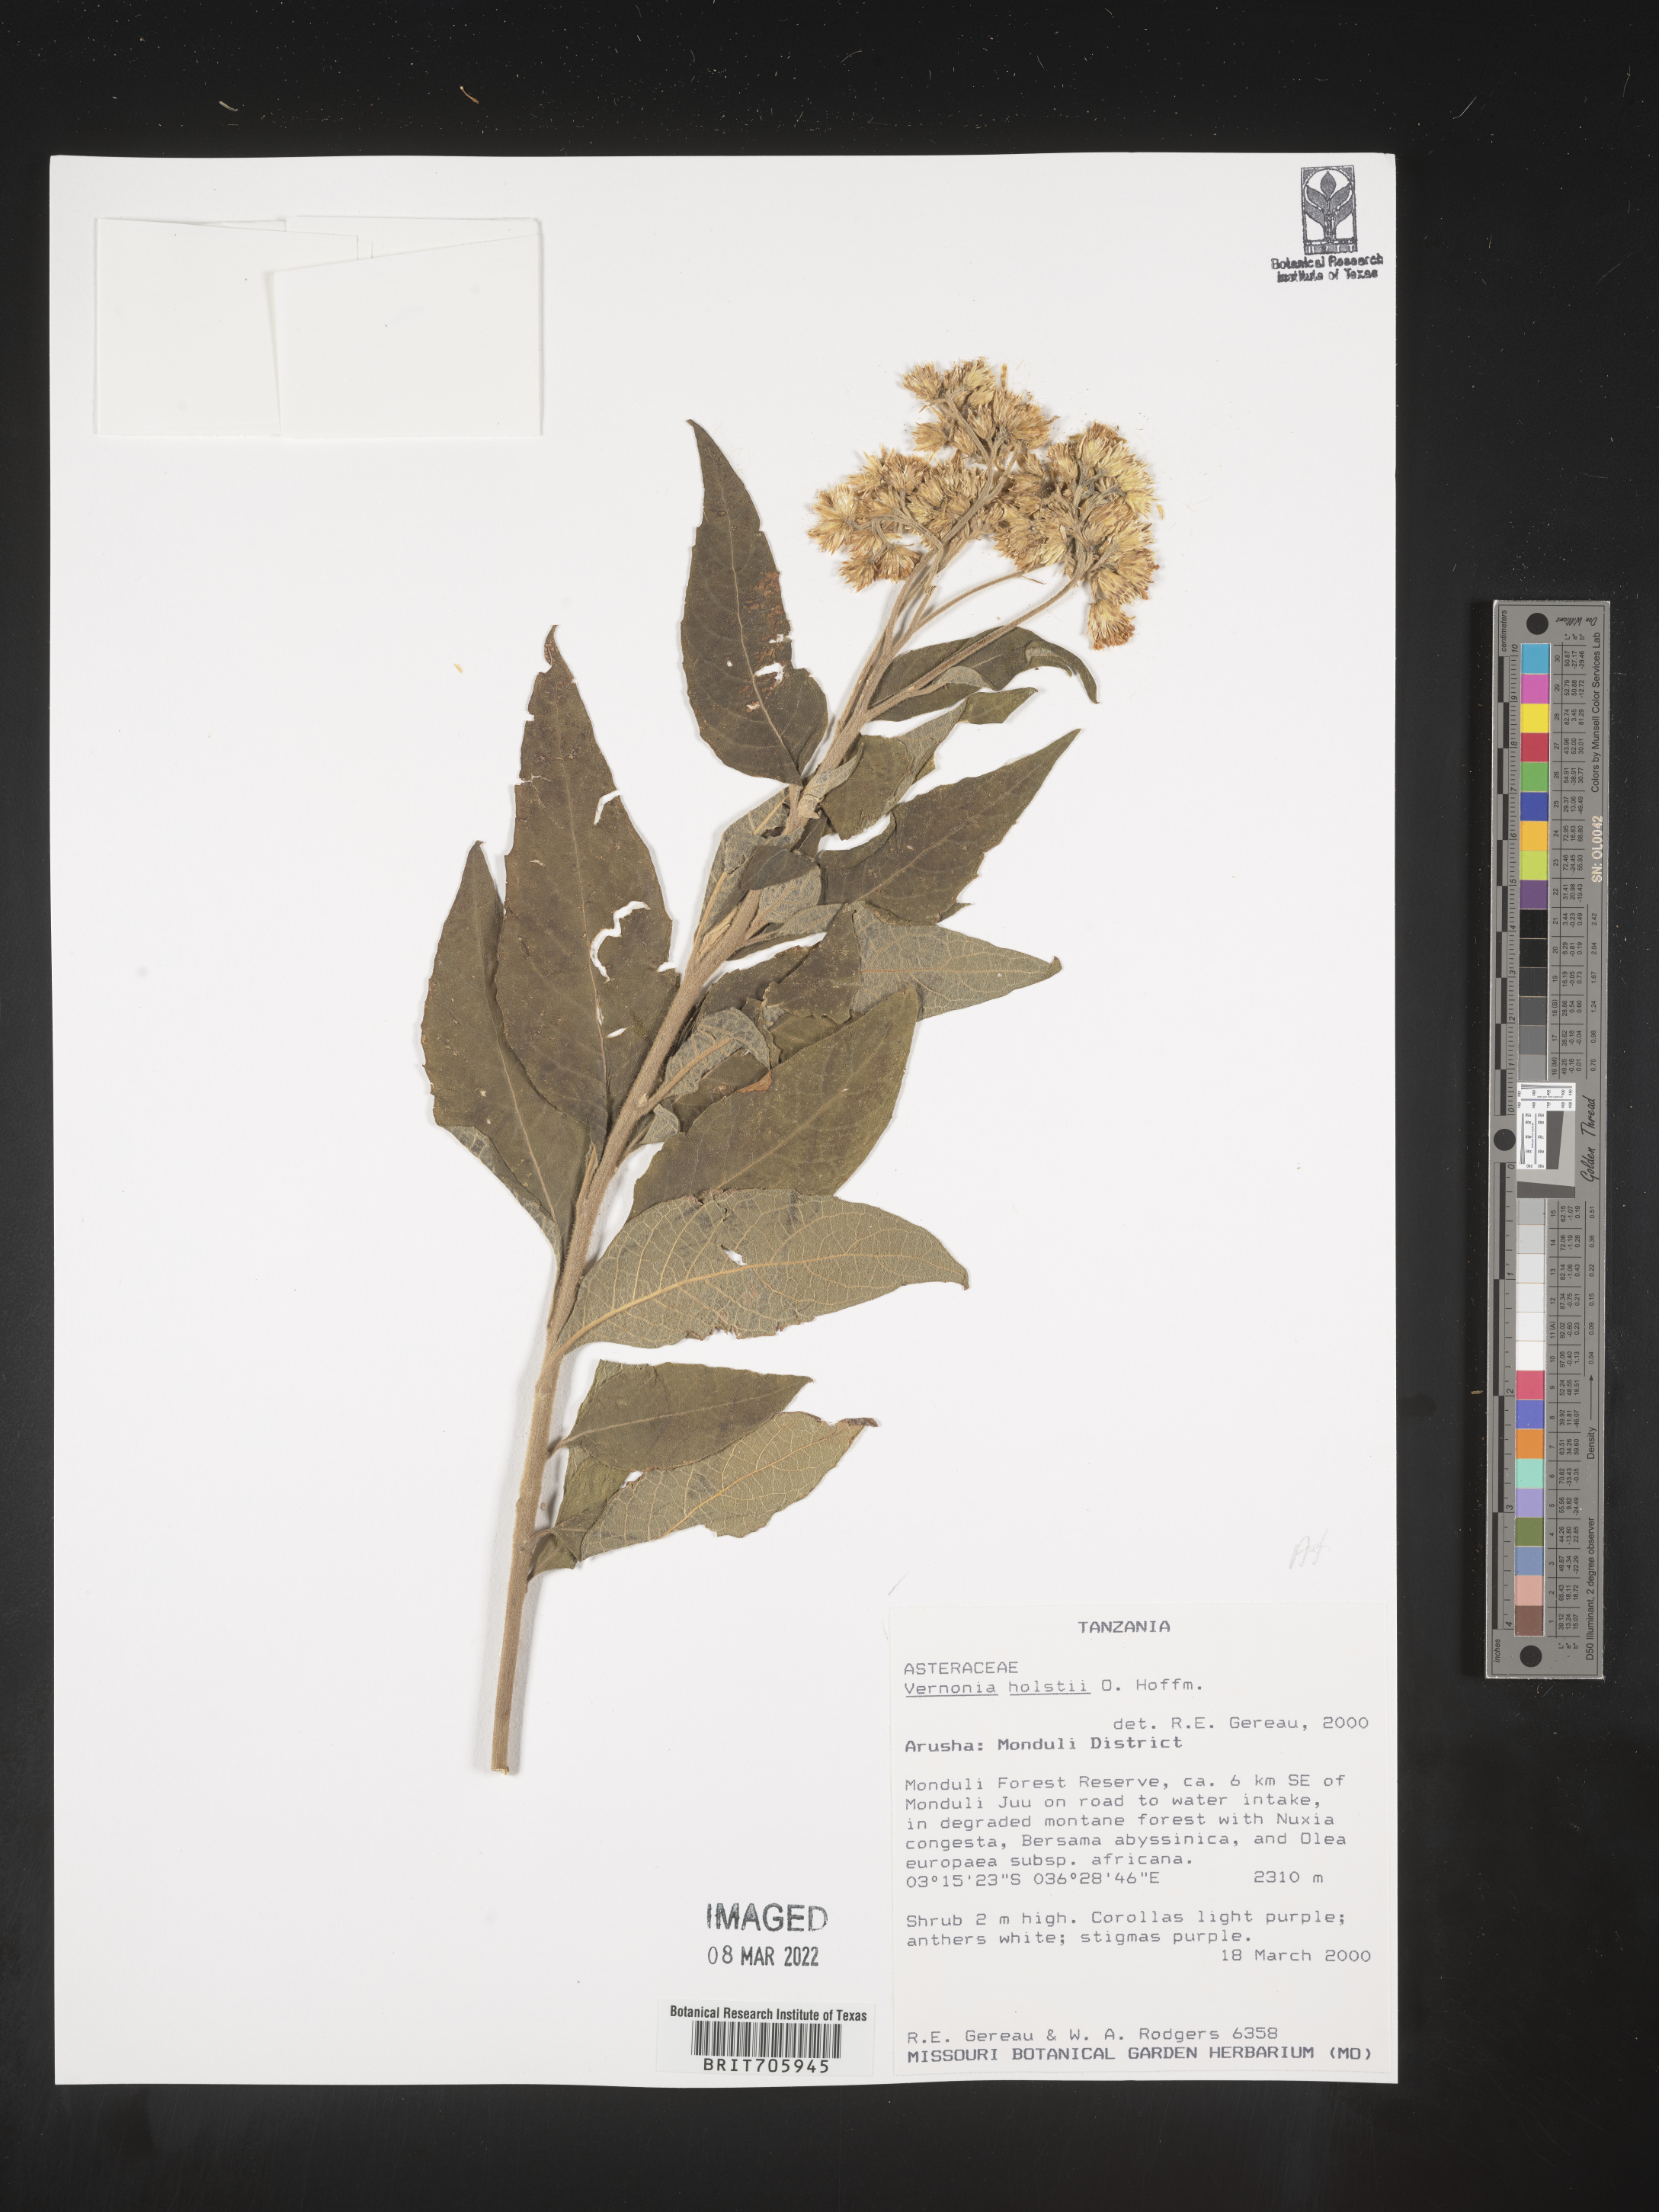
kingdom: Plantae
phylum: Tracheophyta
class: Magnoliopsida
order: Asterales
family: Asteraceae
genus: Vernonia
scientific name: Vernonia
